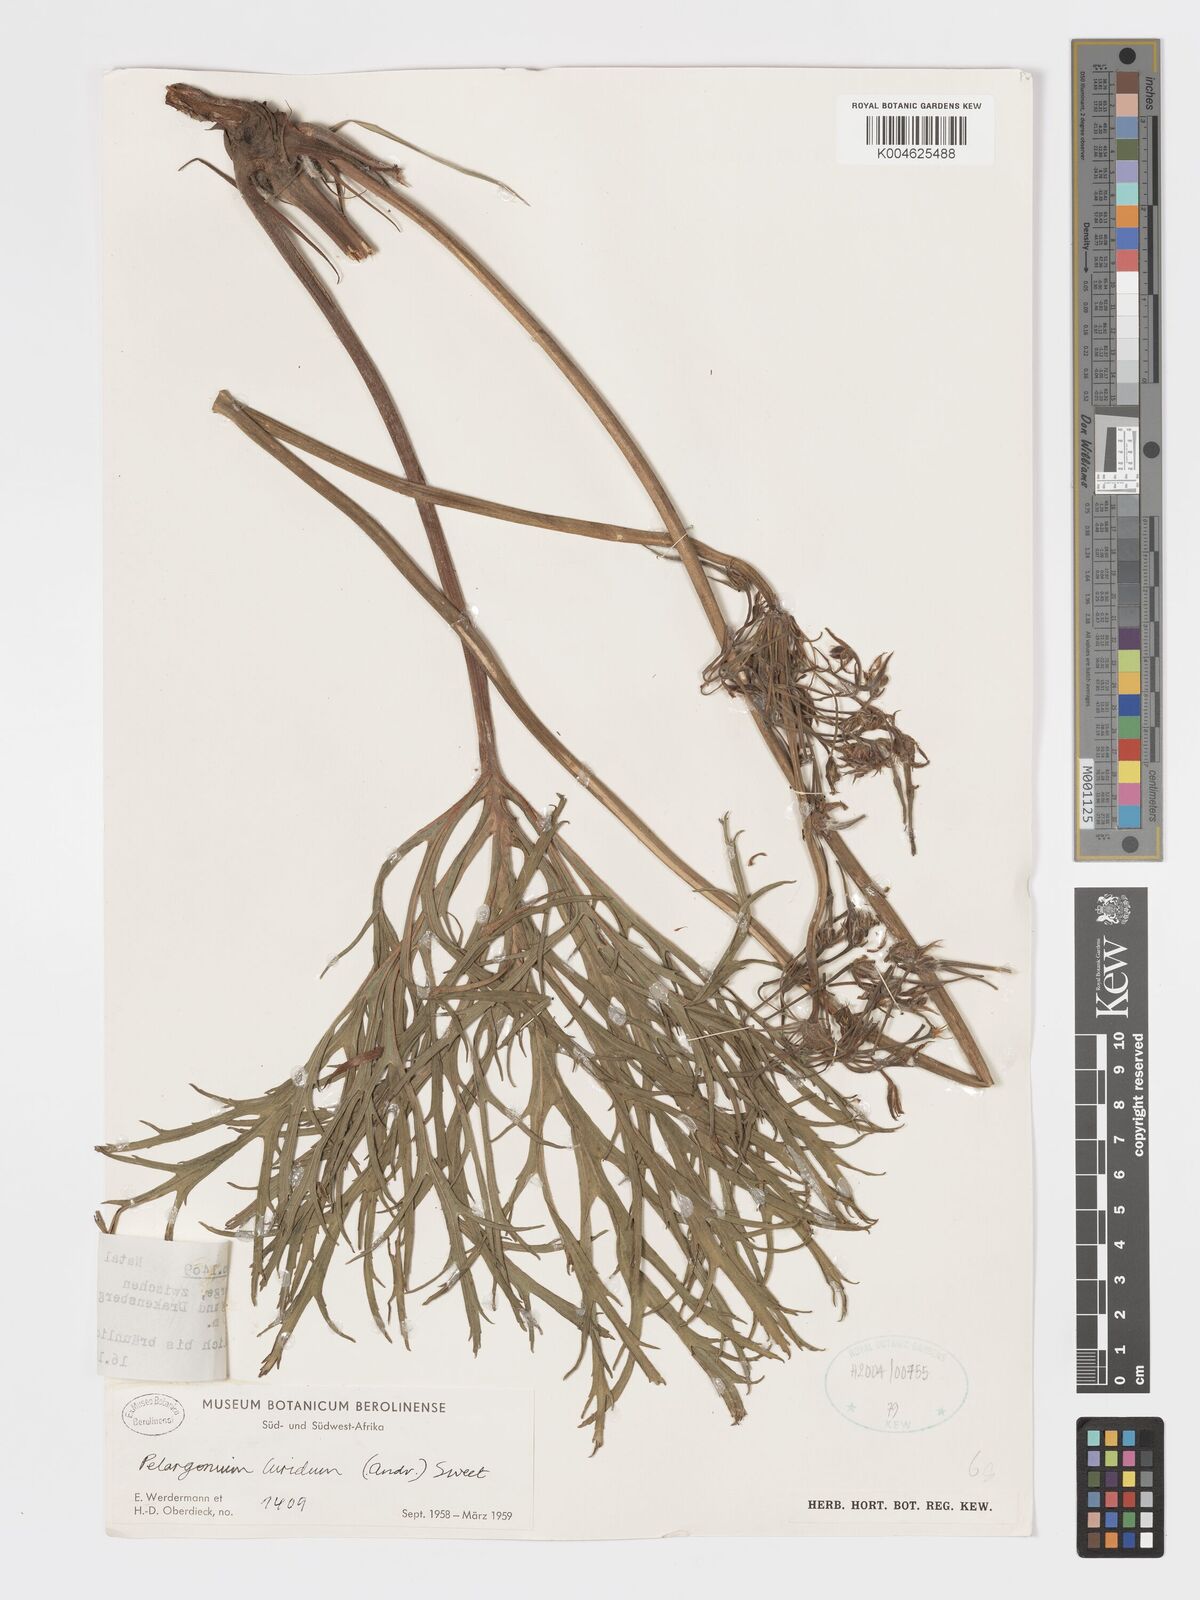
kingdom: Plantae
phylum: Tracheophyta
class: Magnoliopsida
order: Geraniales
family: Geraniaceae
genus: Pelargonium
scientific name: Pelargonium luridum
